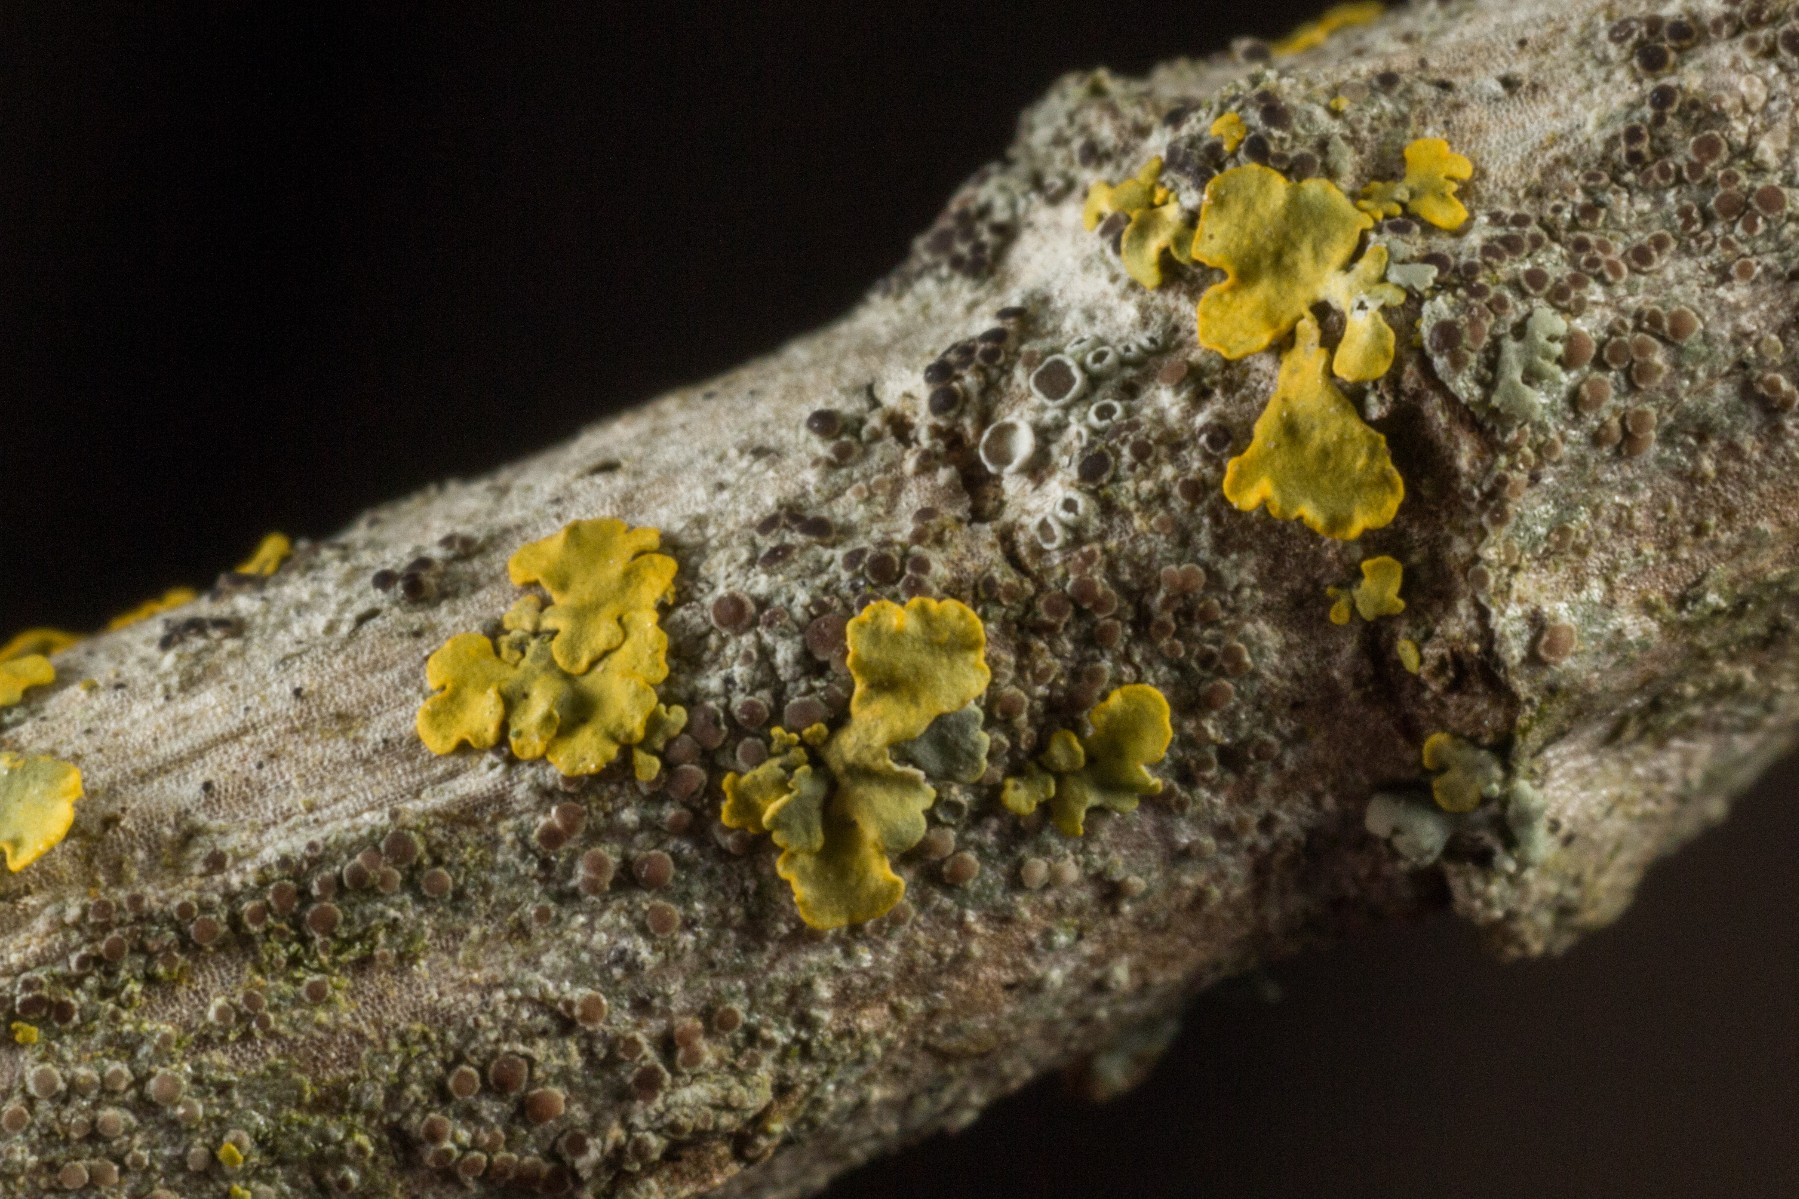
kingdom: Fungi
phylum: Ascomycota
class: Lecanoromycetes
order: Lecanorales
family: Lecanoraceae
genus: Polyozosia
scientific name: Polyozosia sambuci
